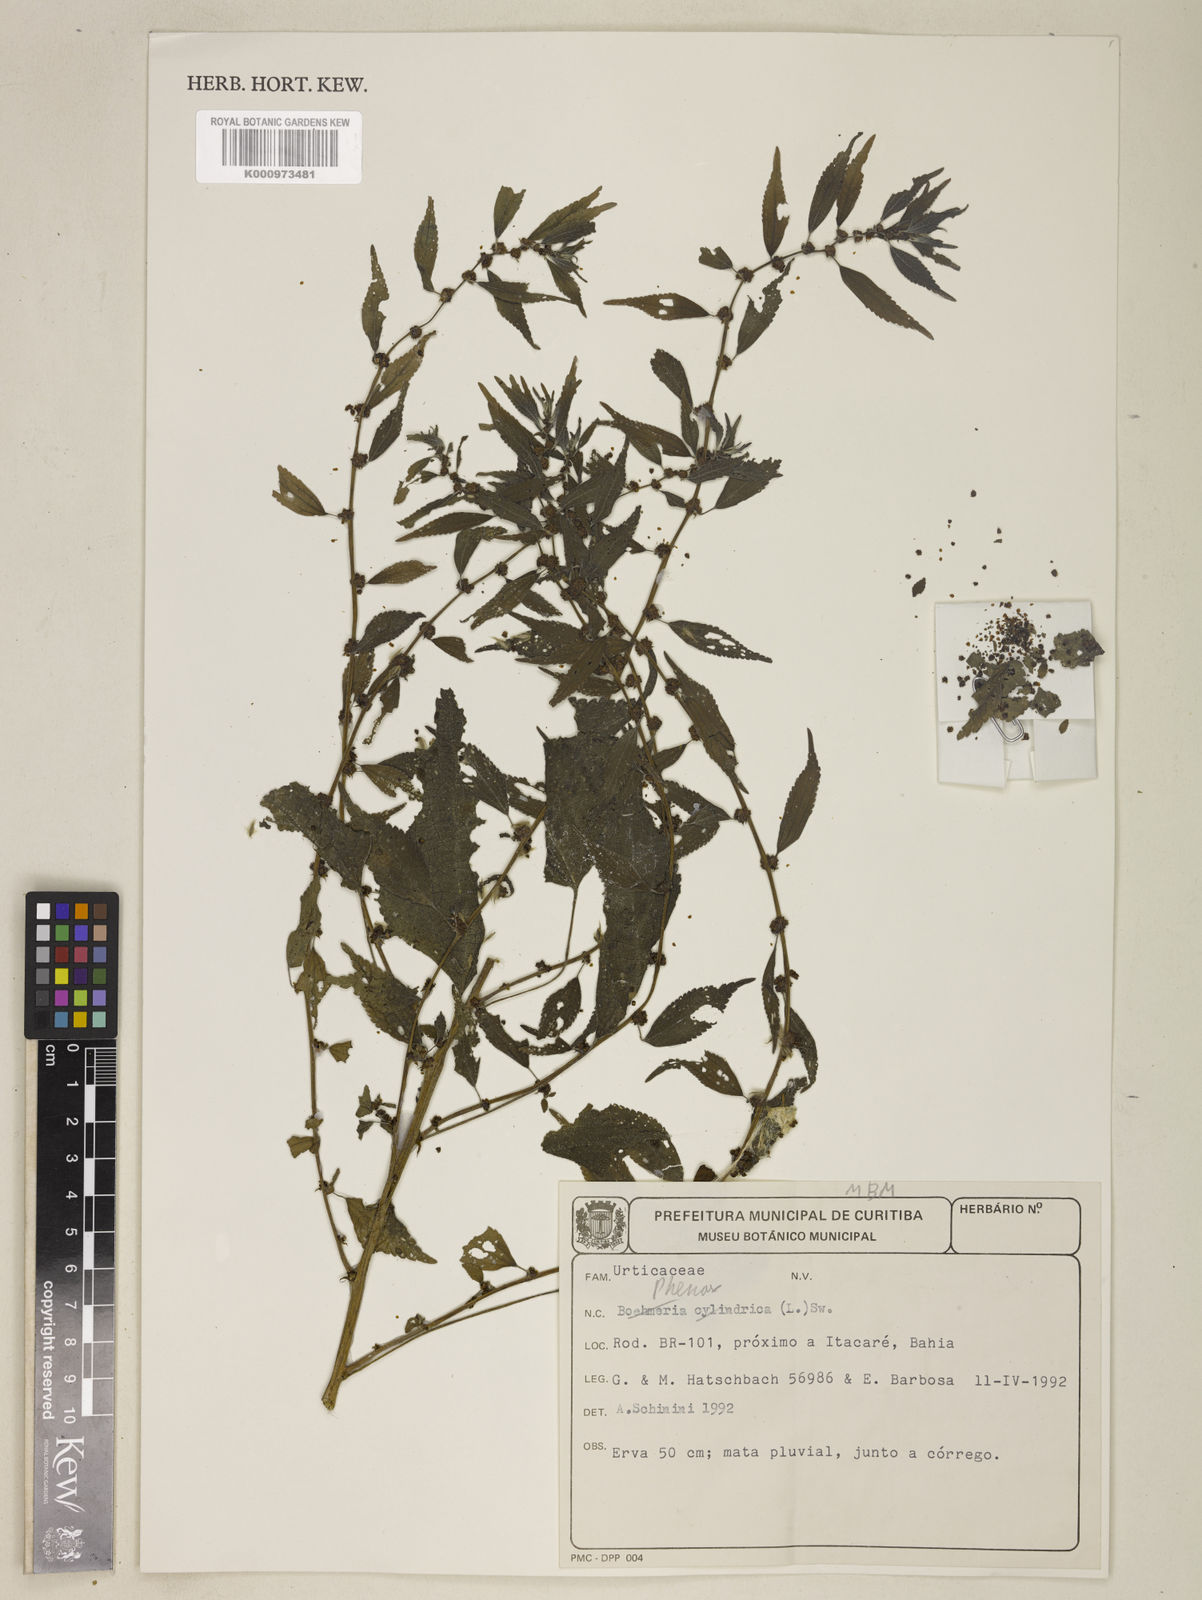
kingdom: Plantae
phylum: Tracheophyta
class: Magnoliopsida
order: Rosales
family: Urticaceae
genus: Phenax
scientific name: Phenax
